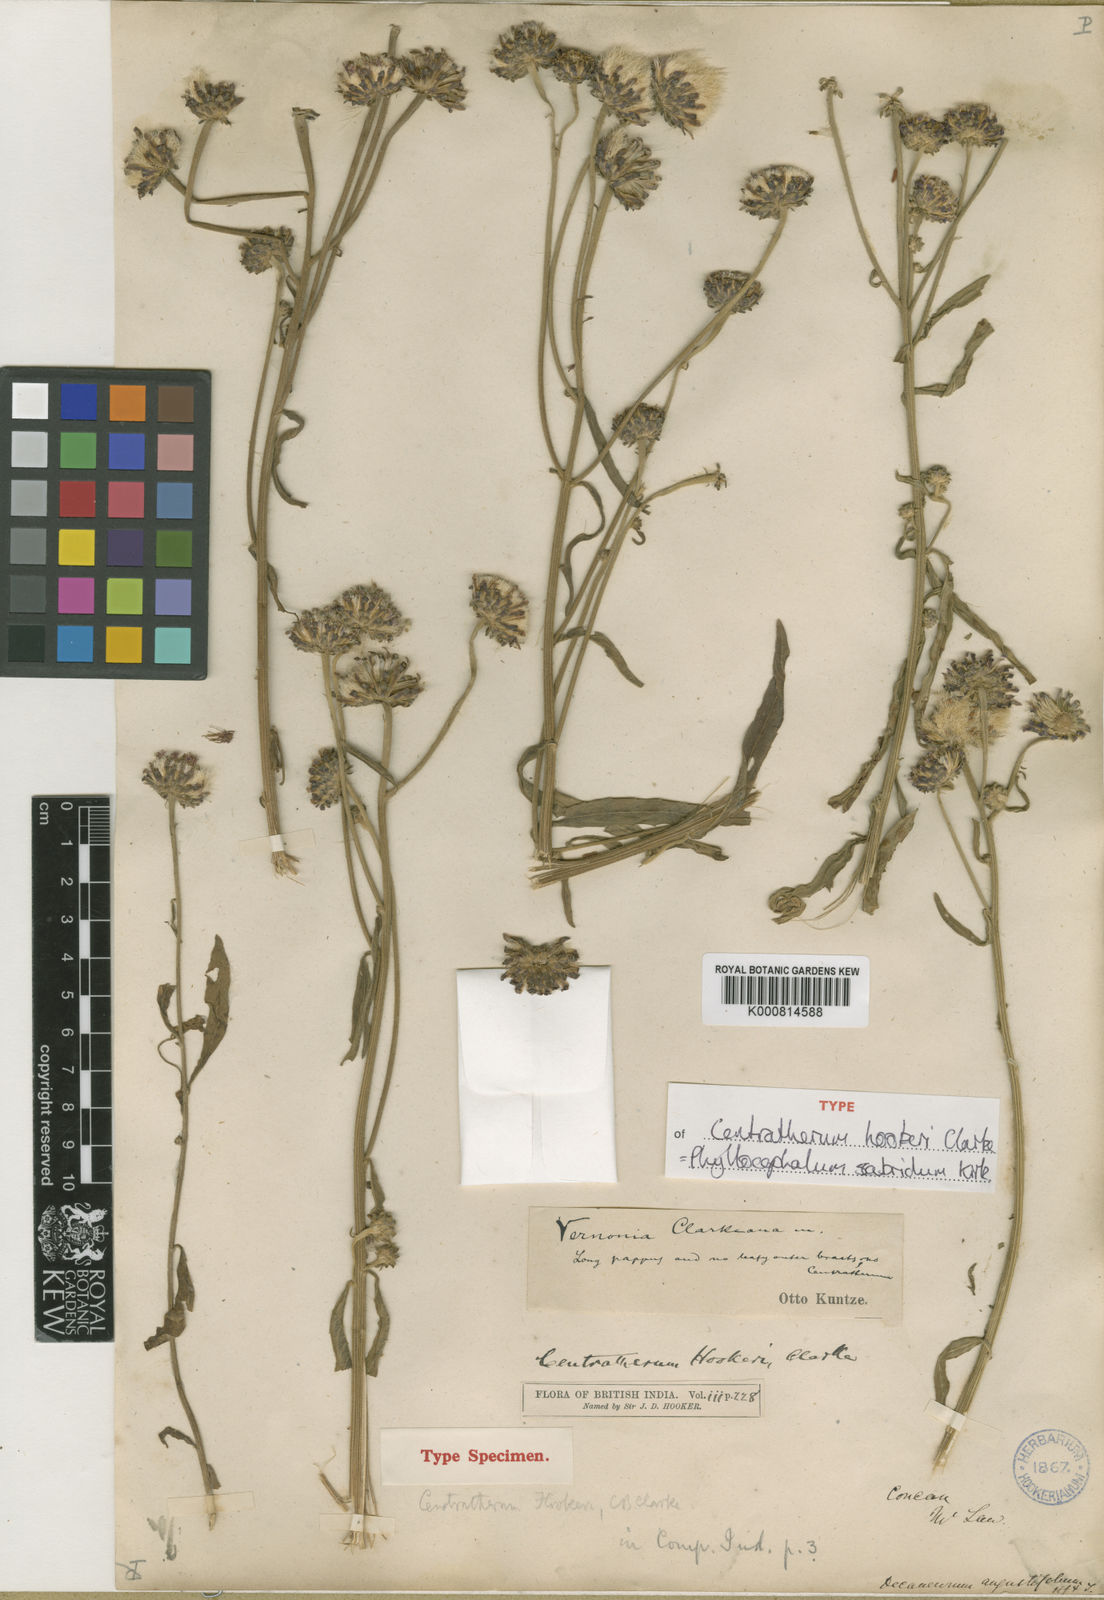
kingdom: Plantae
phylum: Tracheophyta
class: Magnoliopsida
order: Asterales
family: Asteraceae
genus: Phyllocephalum
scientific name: Phyllocephalum scabridum
